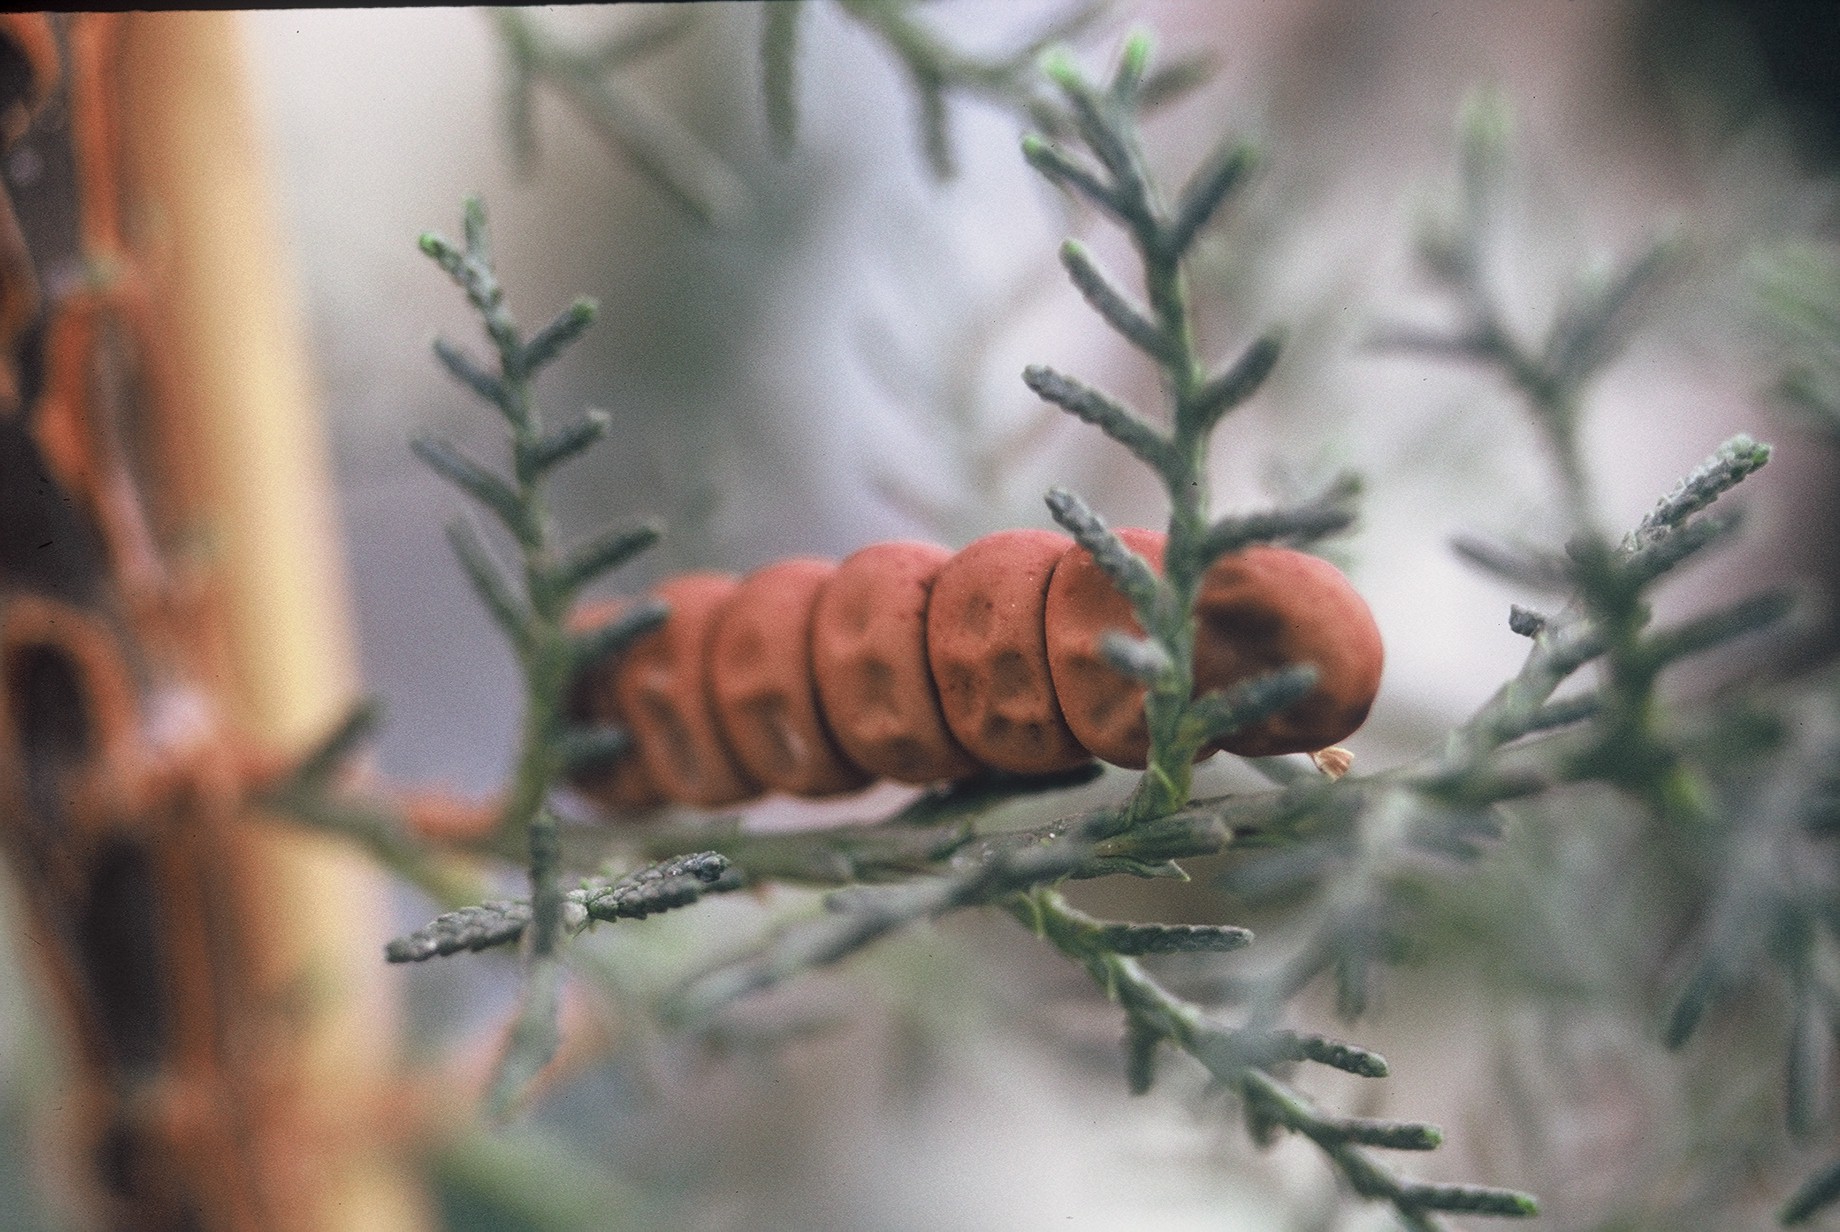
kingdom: Plantae
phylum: Tracheophyta
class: Magnoliopsida
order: Fabales
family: Fabaceae
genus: Lathyrus
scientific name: Lathyrus oleraceus
